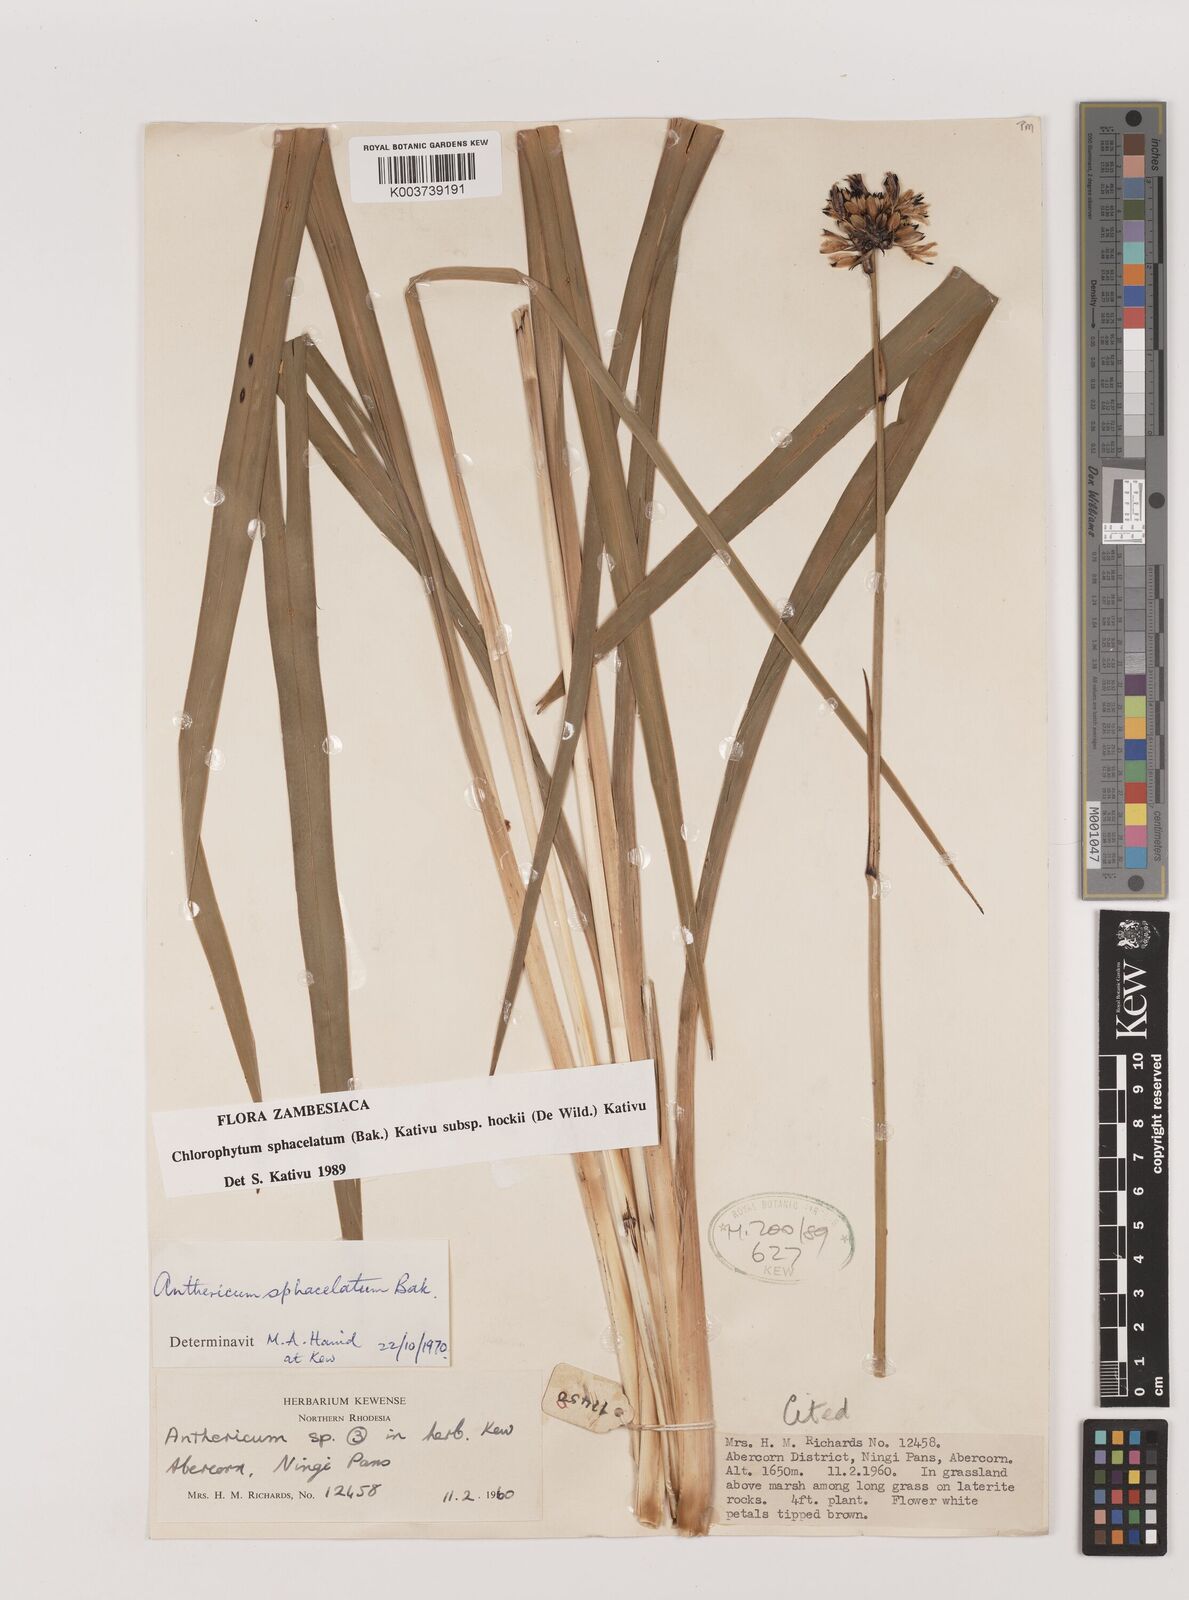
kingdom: Plantae
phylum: Tracheophyta
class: Liliopsida
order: Asparagales
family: Asparagaceae
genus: Chlorophytum
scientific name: Chlorophytum sphacelatum
